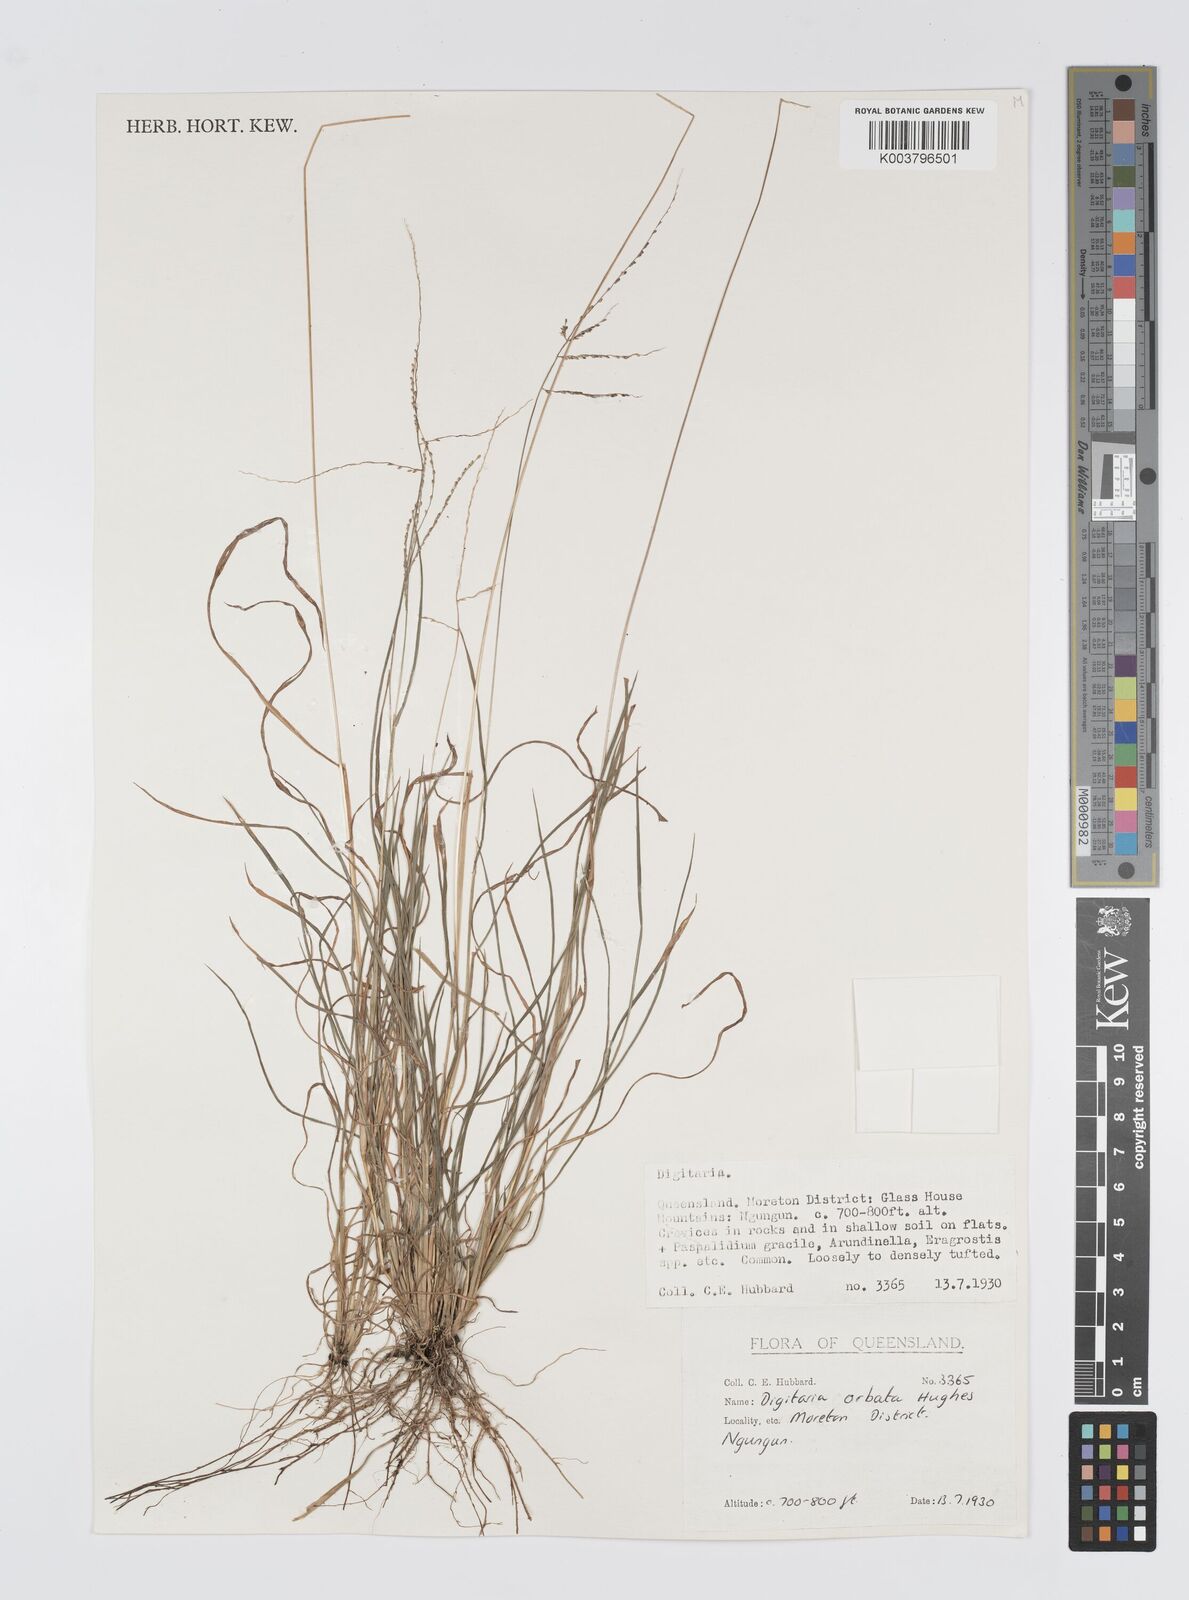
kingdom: Plantae
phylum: Tracheophyta
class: Liliopsida
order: Poales
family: Poaceae
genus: Digitaria
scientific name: Digitaria orbata
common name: Crabgrass
